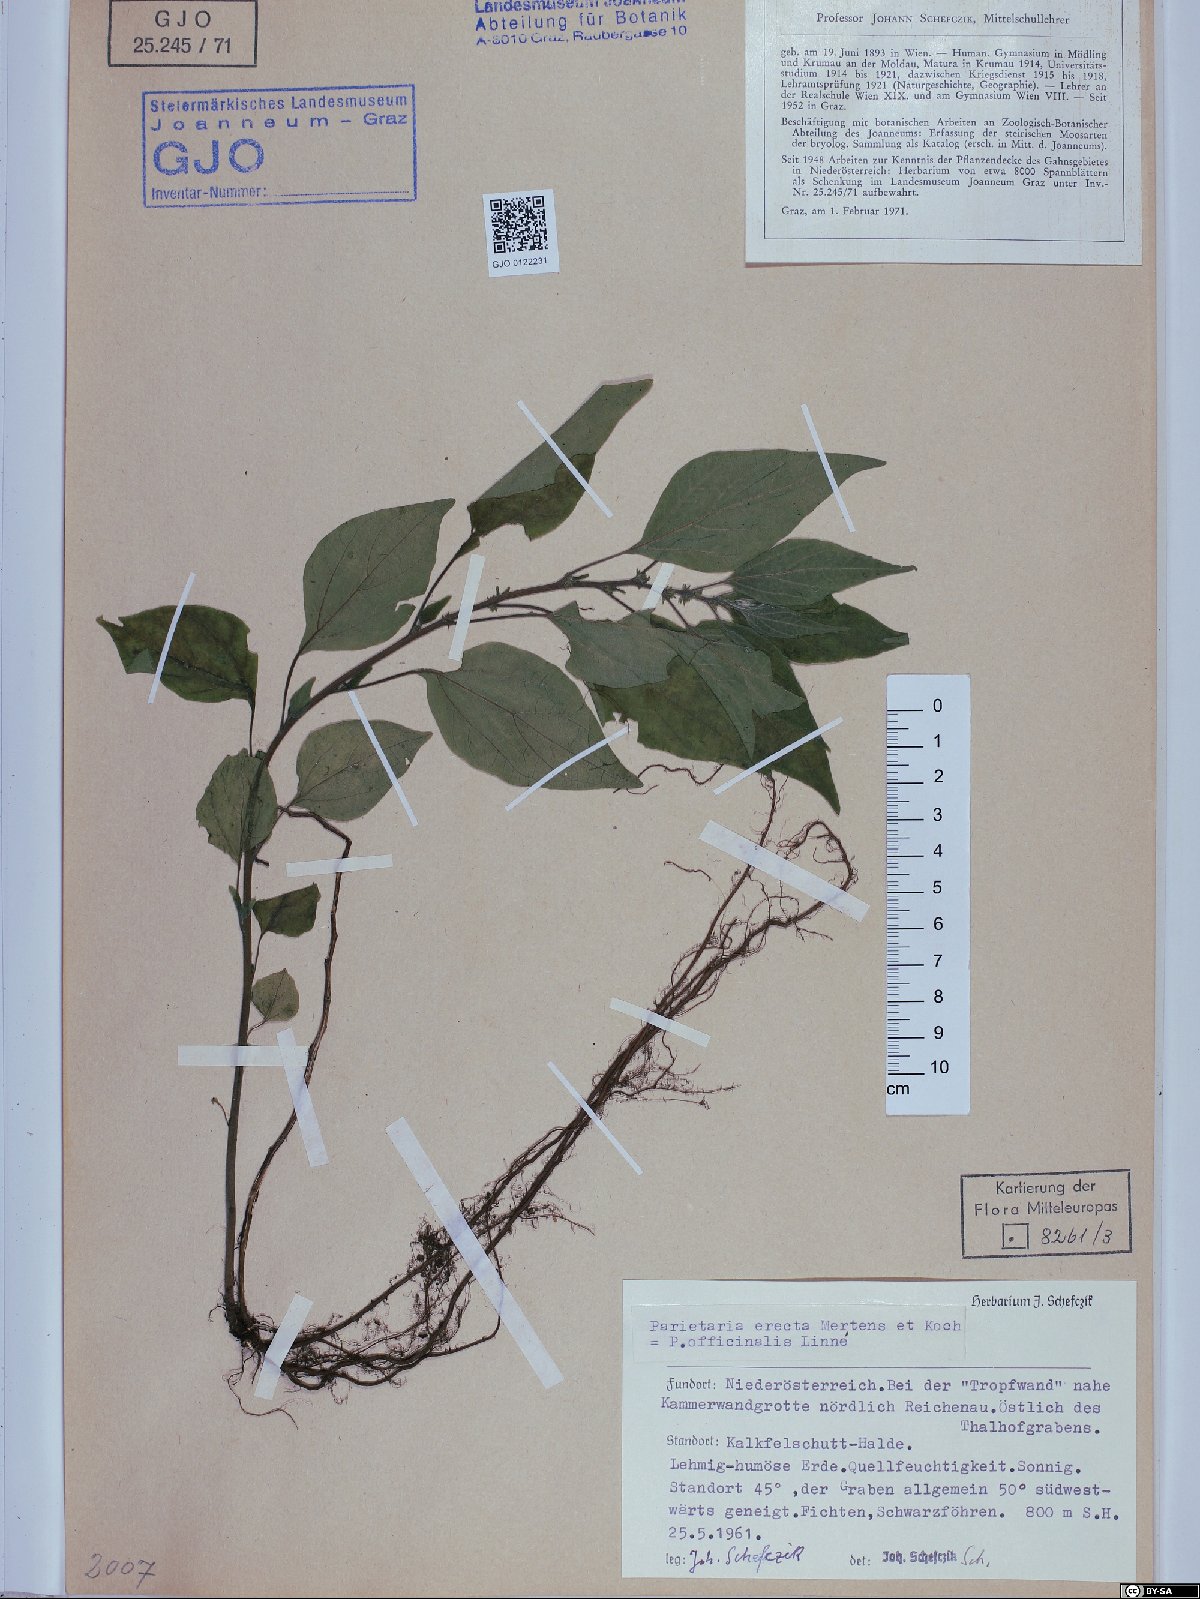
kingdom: Plantae
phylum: Tracheophyta
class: Magnoliopsida
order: Rosales
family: Urticaceae
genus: Parietaria
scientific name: Parietaria officinalis
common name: Eastern pellitory-of-the-wall
